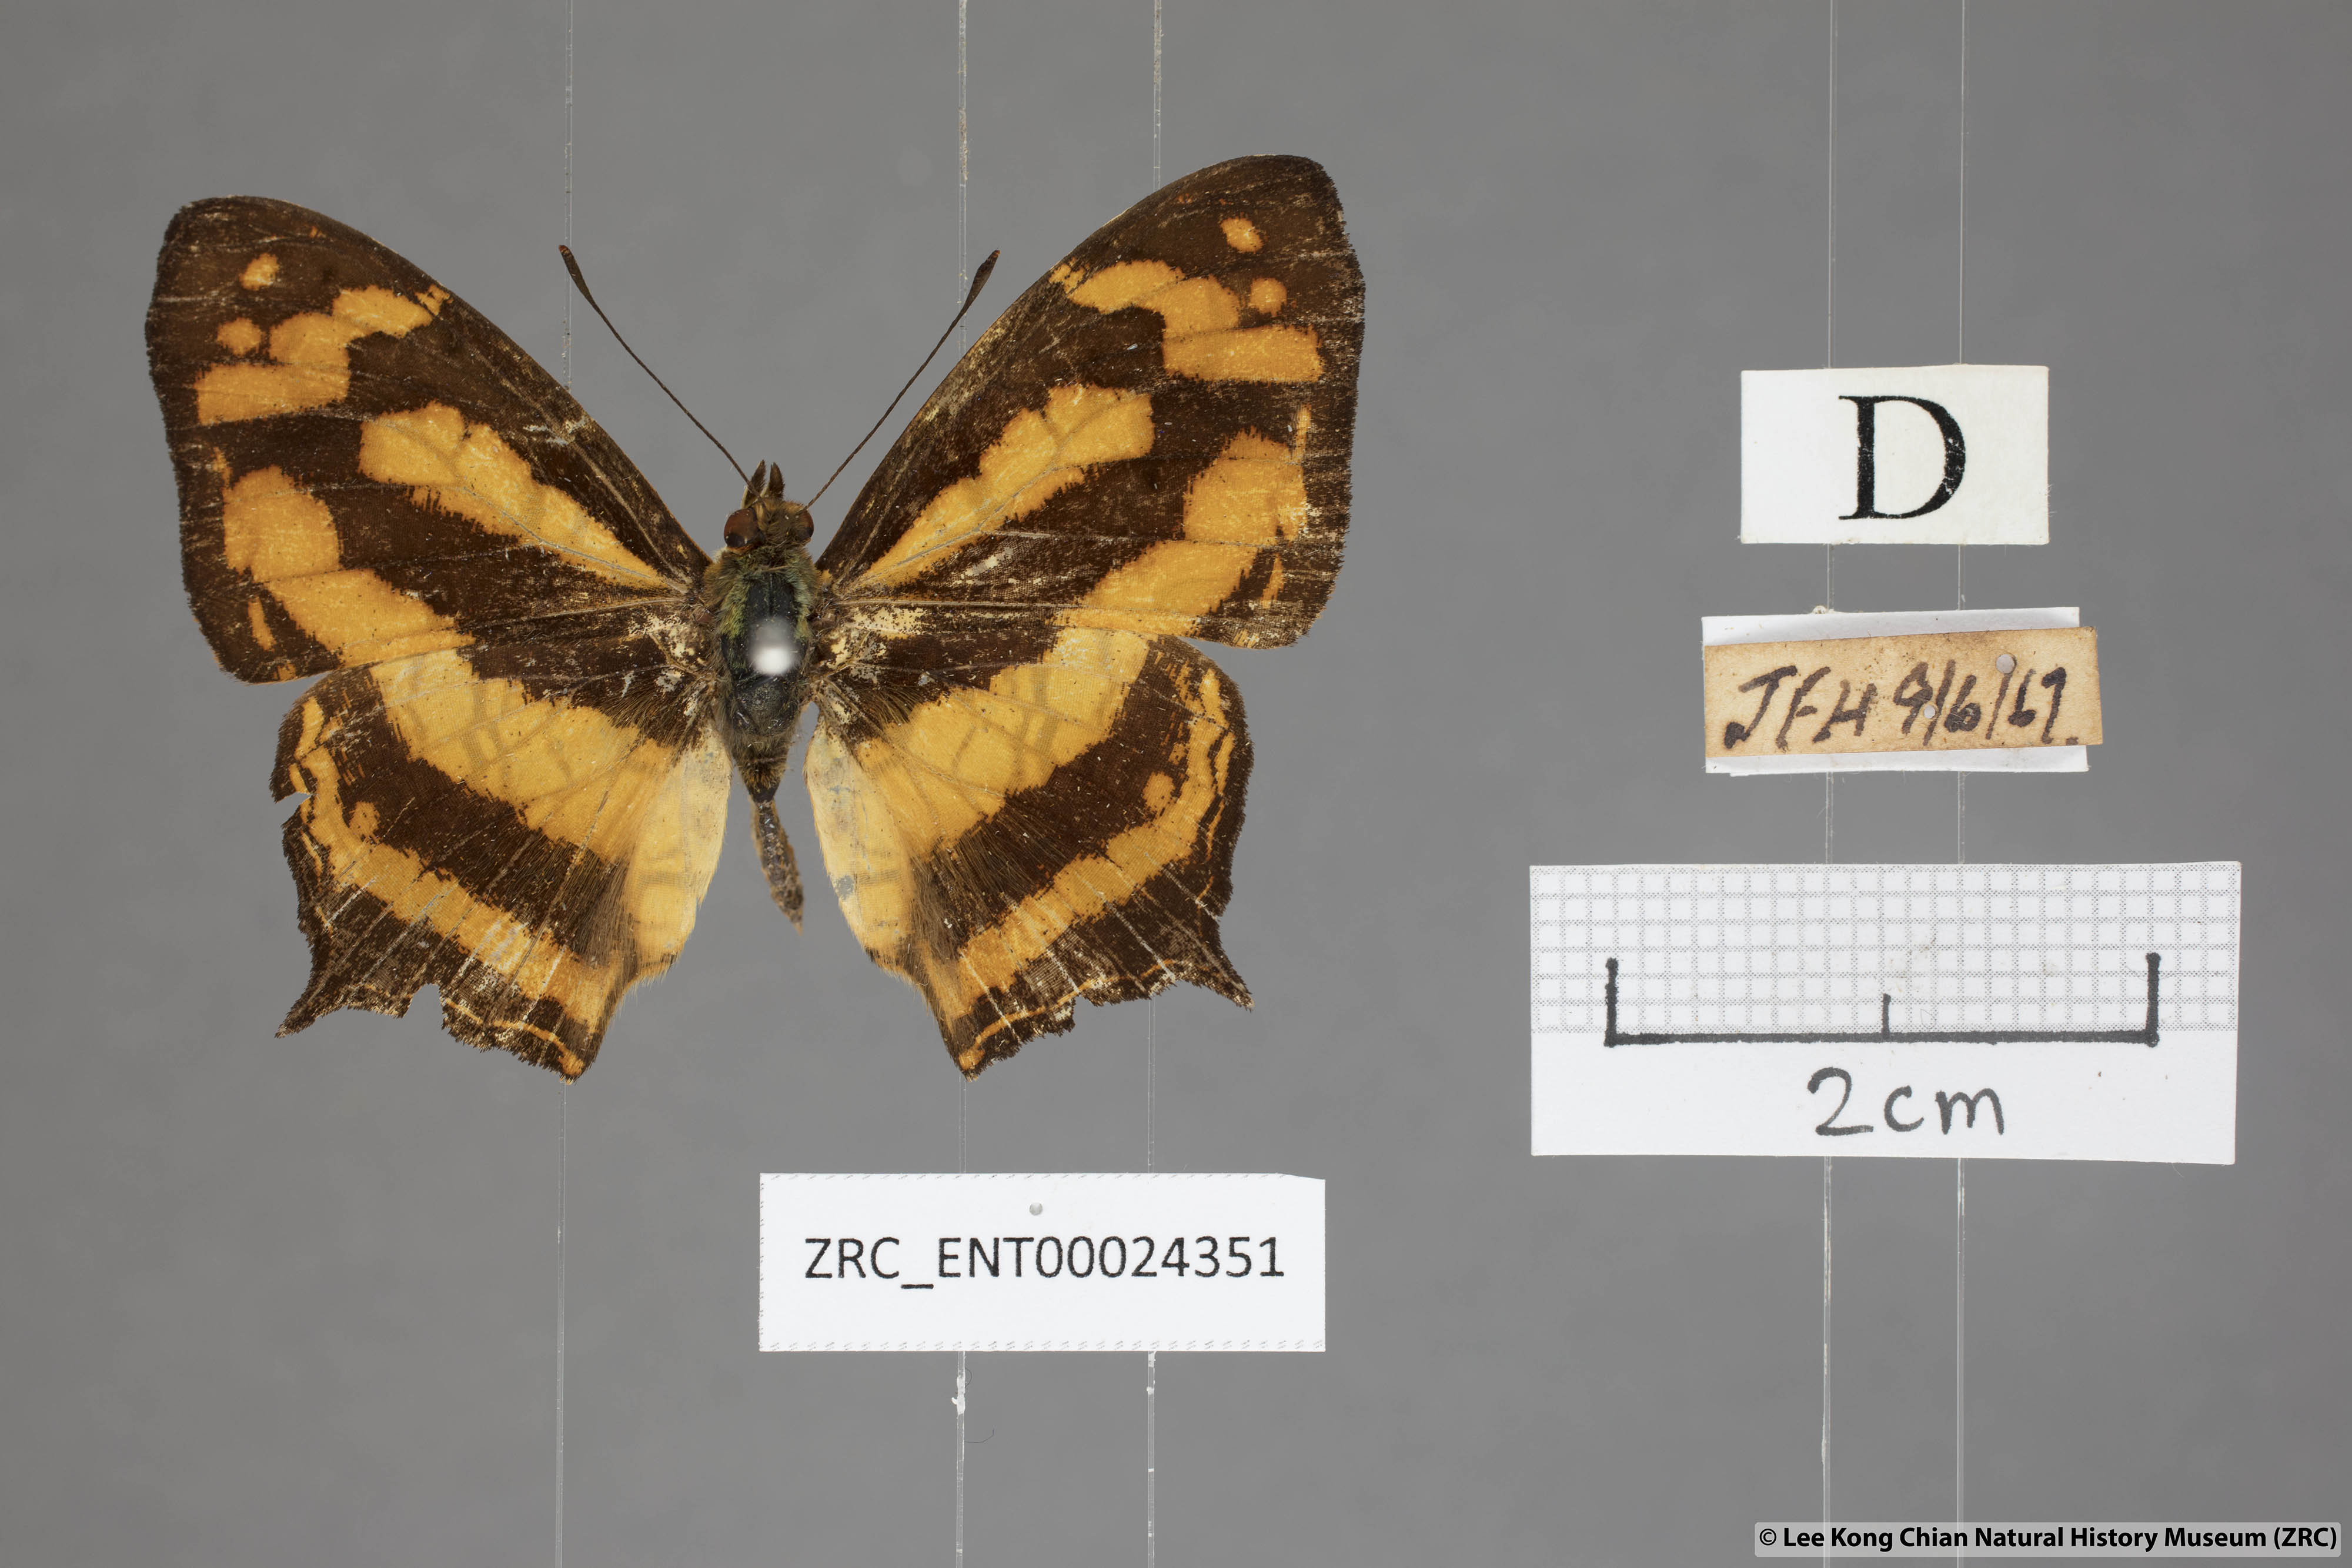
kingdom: Animalia
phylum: Arthropoda
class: Insecta
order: Lepidoptera
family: Nymphalidae
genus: Symbrenthia
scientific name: Symbrenthia hypatia
